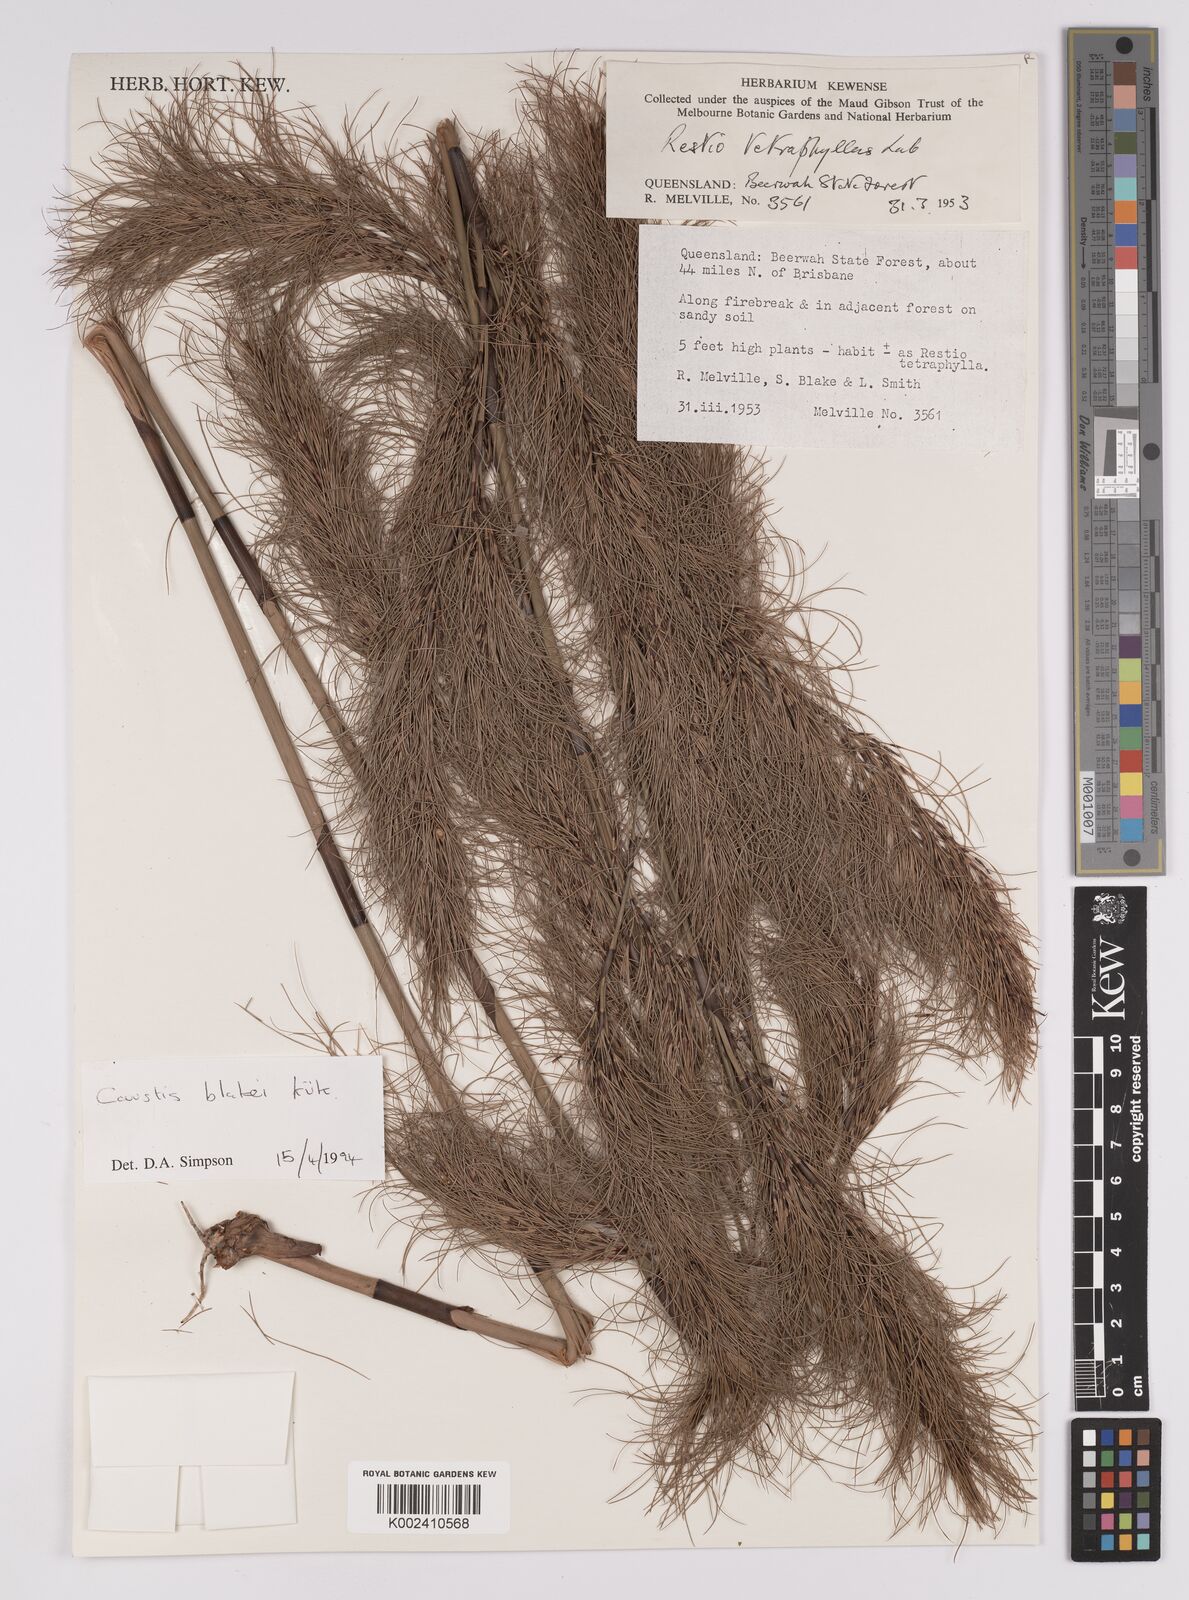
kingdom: Plantae
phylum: Tracheophyta
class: Liliopsida
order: Poales
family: Cyperaceae
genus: Caustis
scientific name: Caustis blakei
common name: Foxtail-fern
